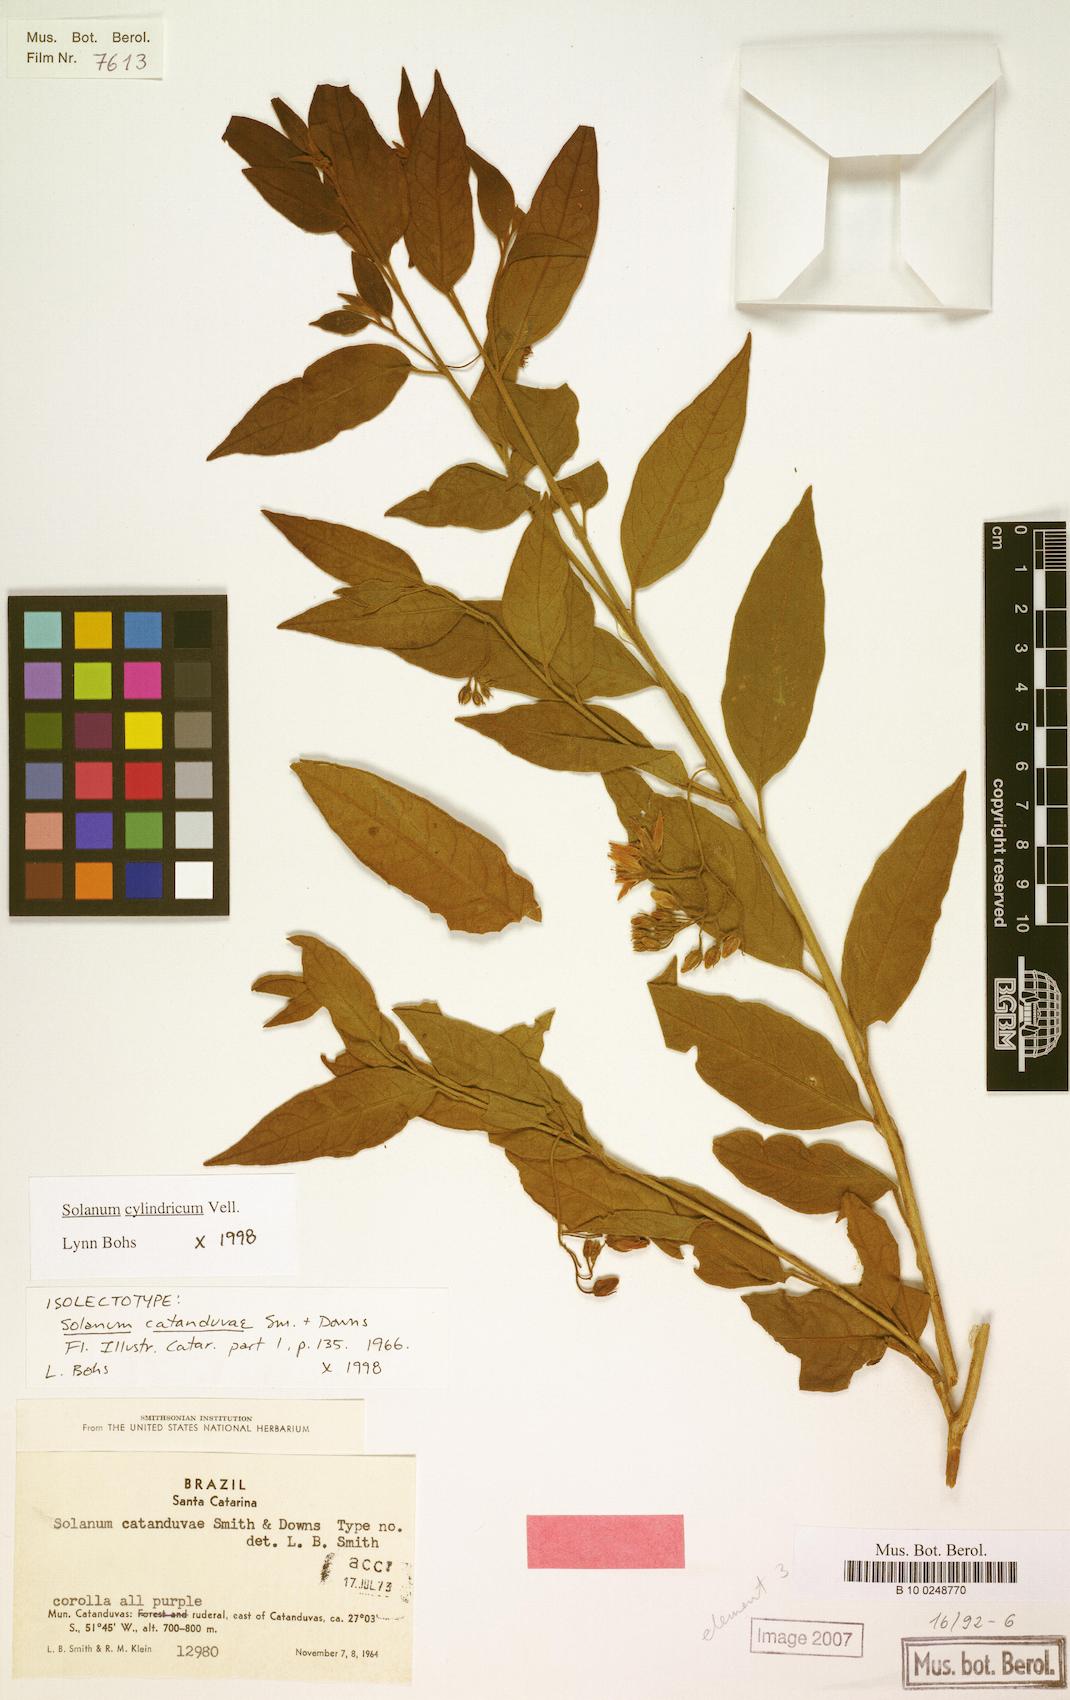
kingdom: Plantae
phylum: Tracheophyta
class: Magnoliopsida
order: Solanales
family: Solanaceae
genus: Solanum
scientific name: Solanum cylindricum
